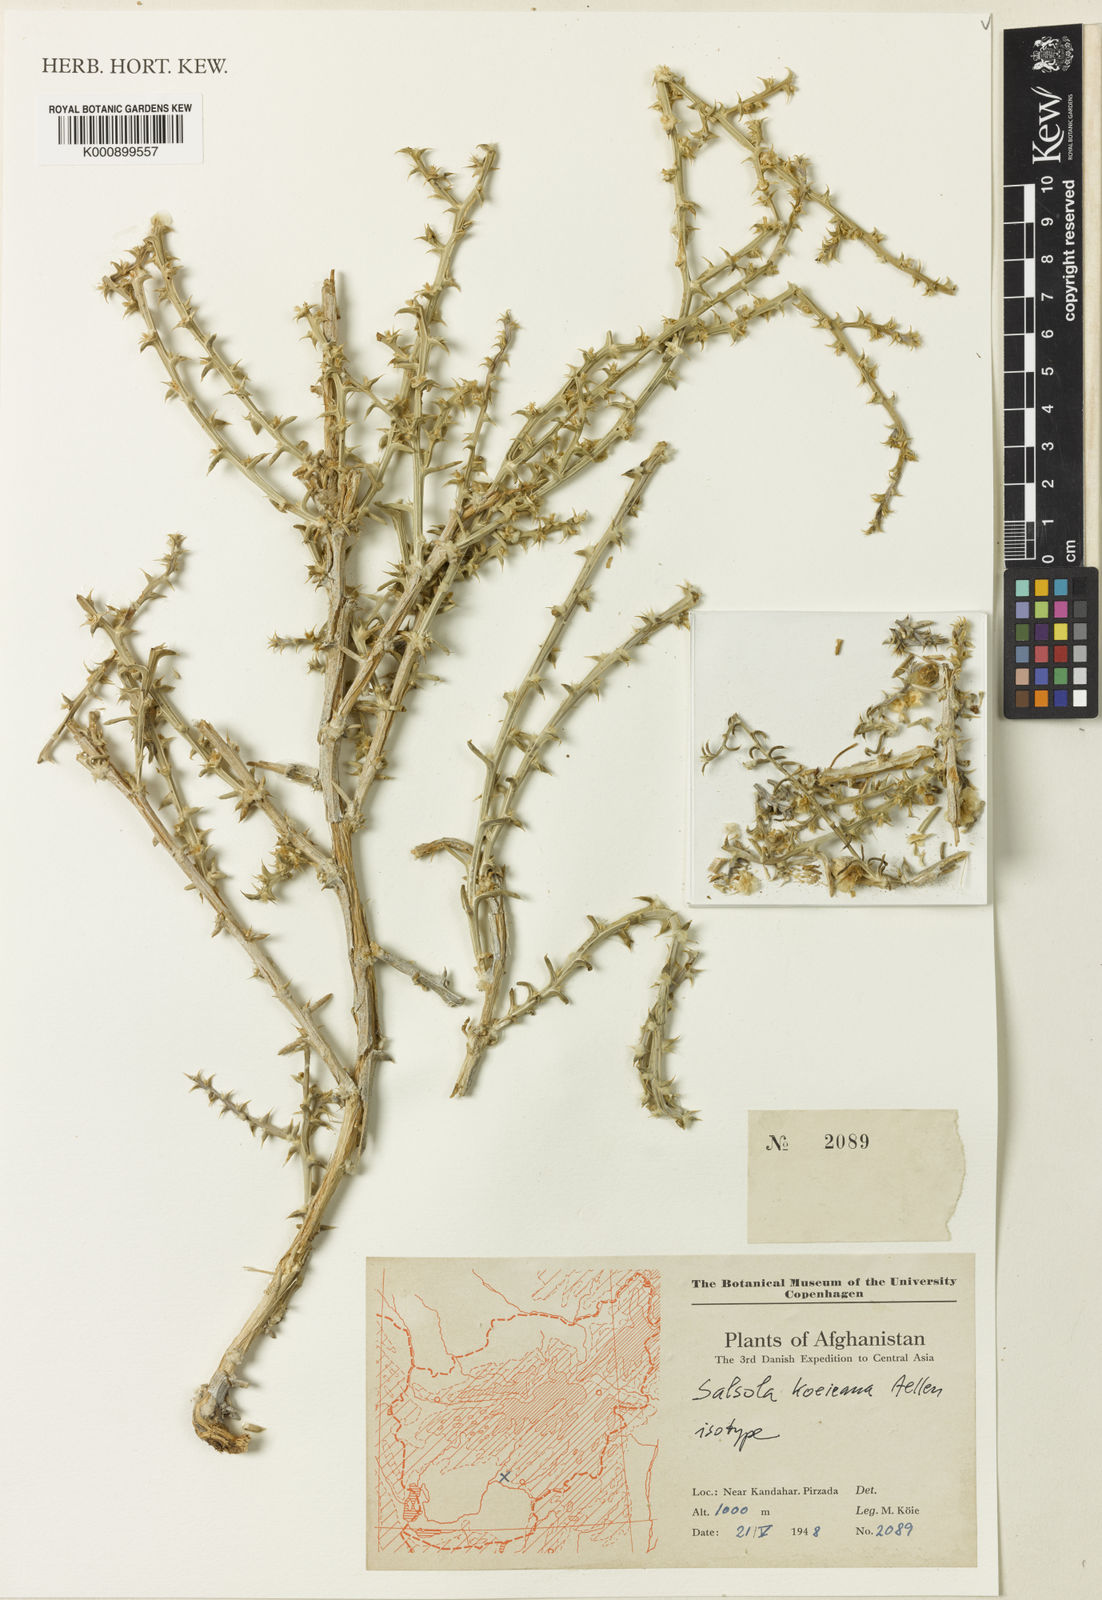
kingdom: Plantae
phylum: Tracheophyta
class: Magnoliopsida
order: Caryophyllales
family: Amaranthaceae
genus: Salsola
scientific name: Salsola
